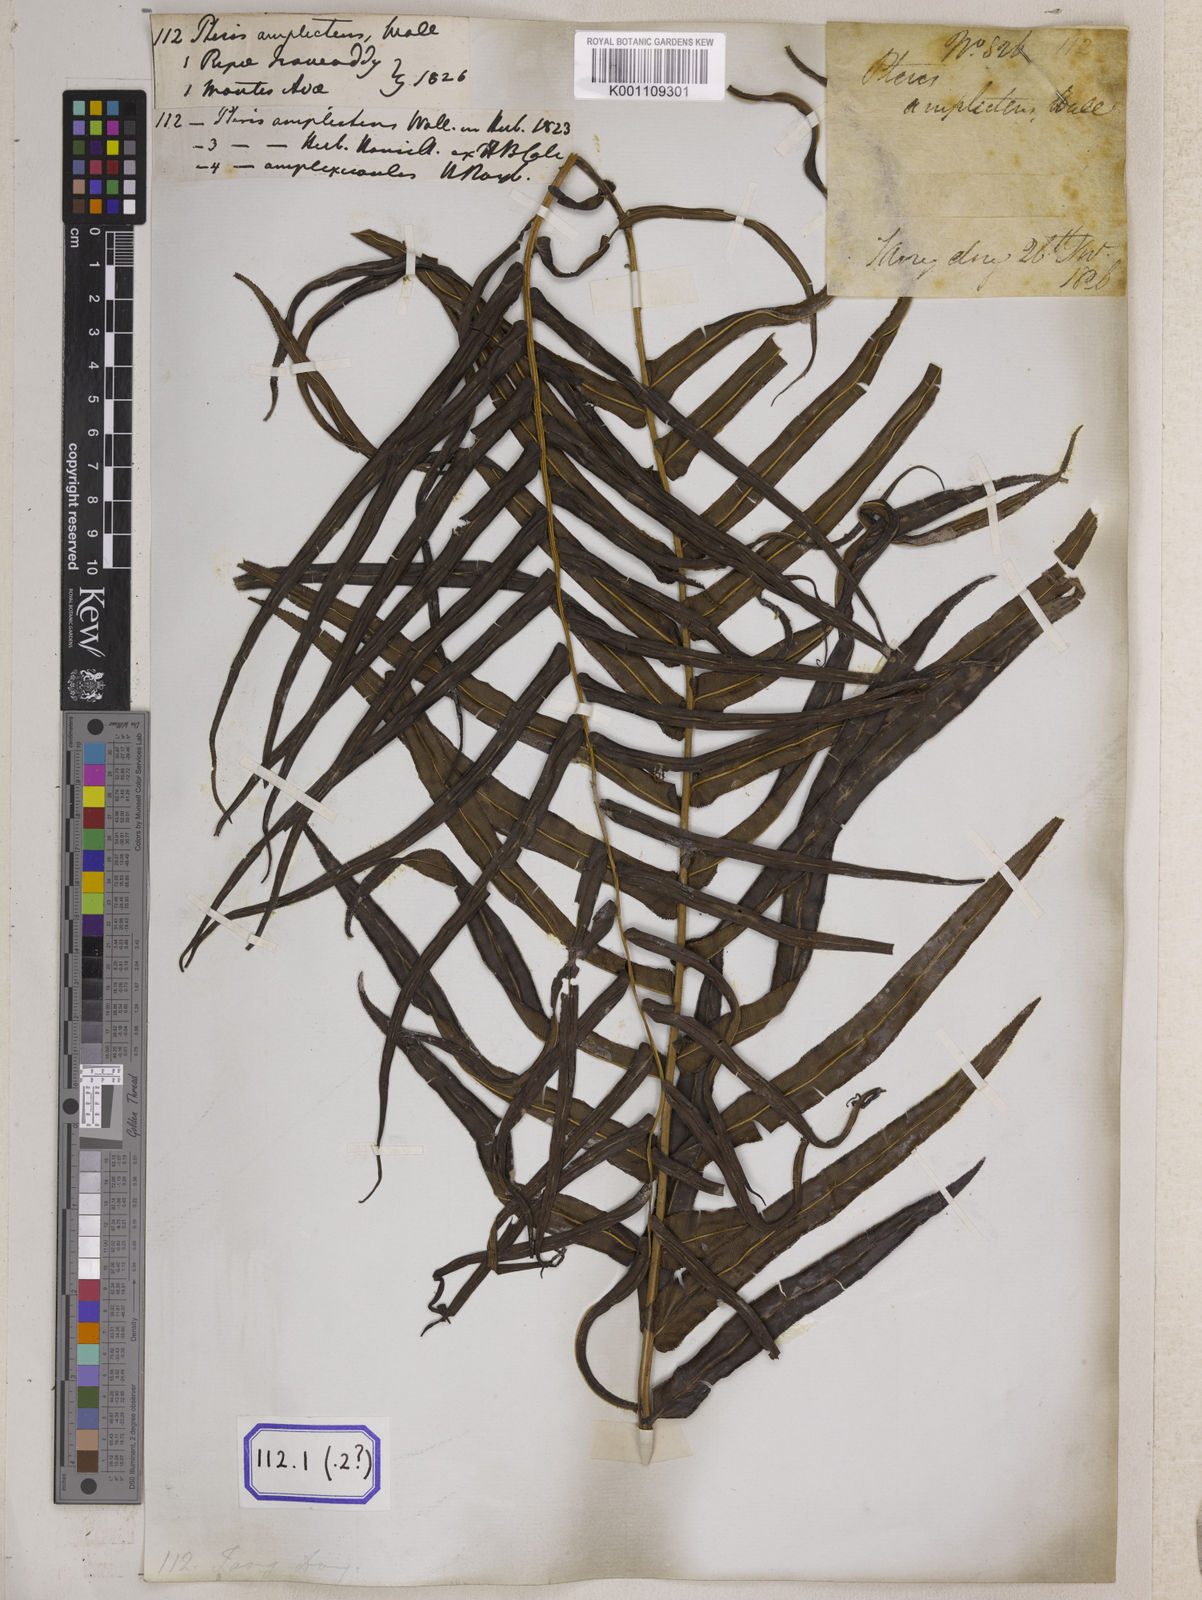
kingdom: Plantae
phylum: Tracheophyta
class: Polypodiopsida
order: Polypodiales
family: Pteridaceae
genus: Pteris
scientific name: Pteris vittata
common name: Ladder brake
